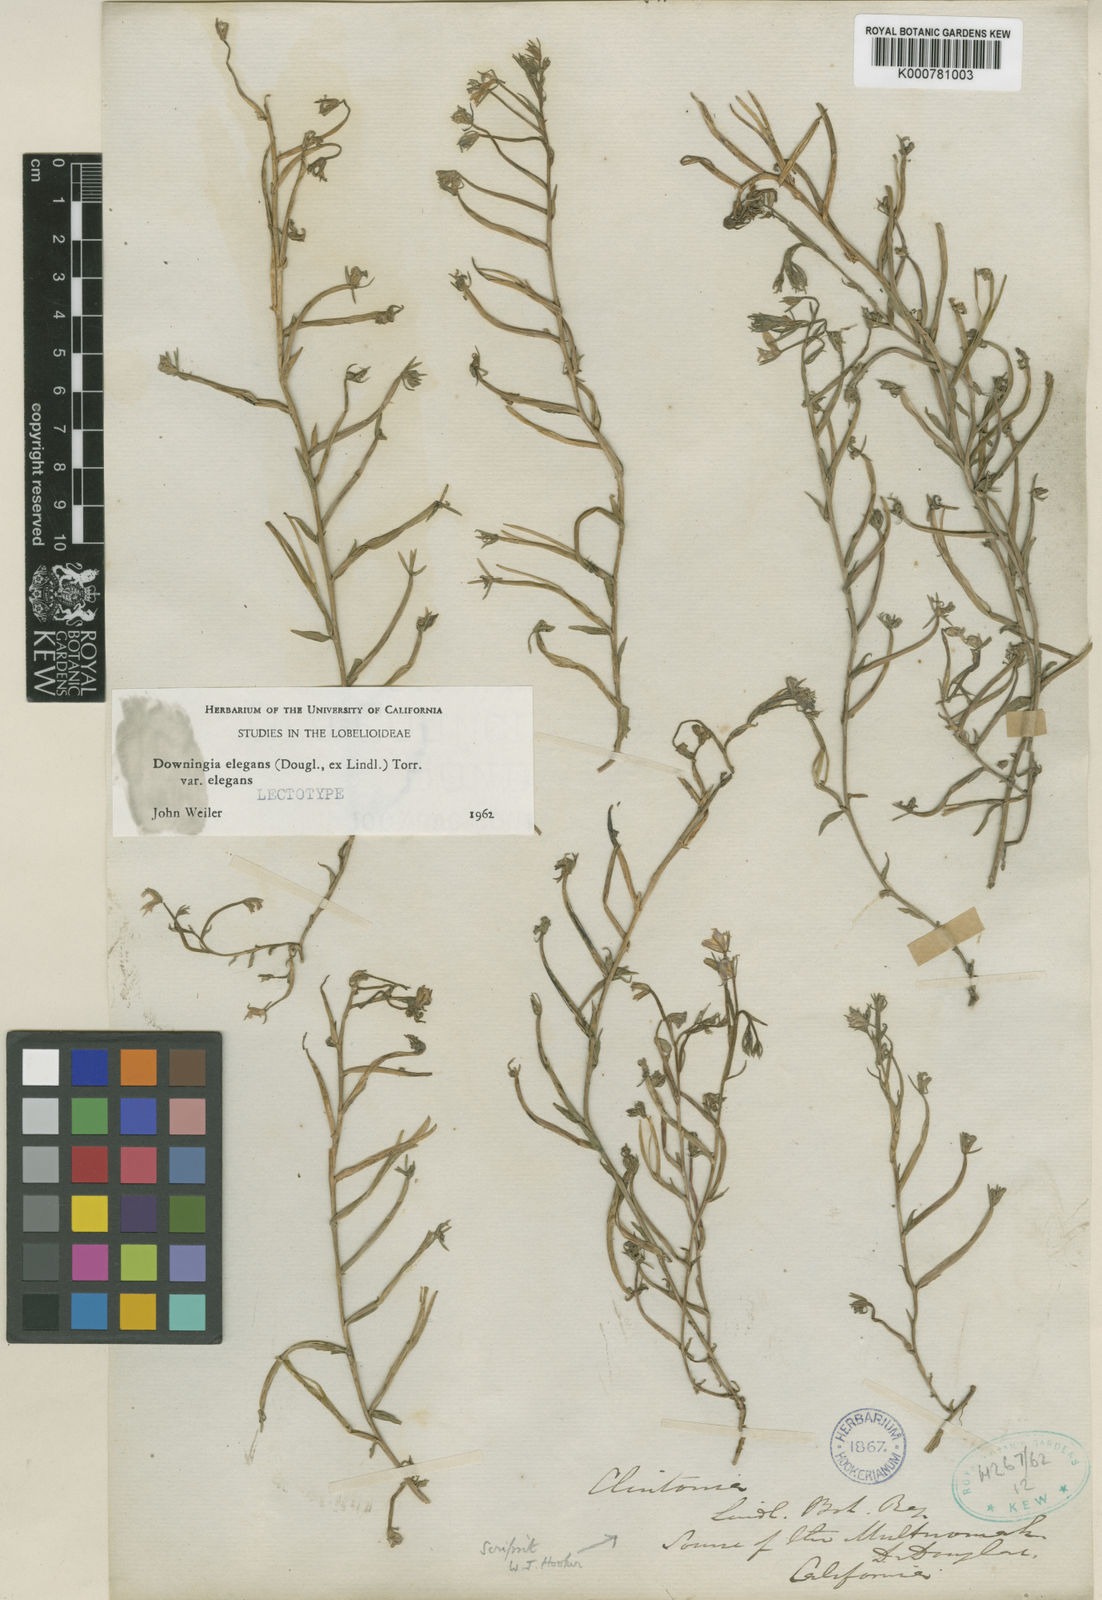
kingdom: Plantae
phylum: Tracheophyta
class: Magnoliopsida
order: Asterales
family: Campanulaceae
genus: Downingia
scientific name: Downingia elegans
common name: Californian lobelia
